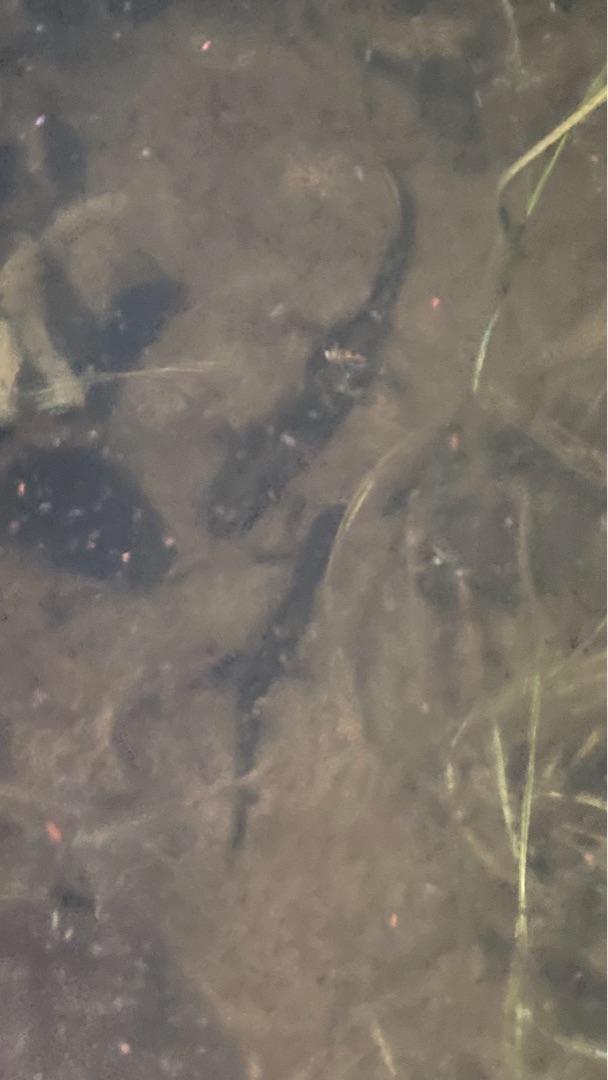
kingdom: Animalia
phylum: Chordata
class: Amphibia
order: Caudata
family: Salamandridae
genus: Triturus
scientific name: Triturus cristatus
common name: Stor vandsalamander
